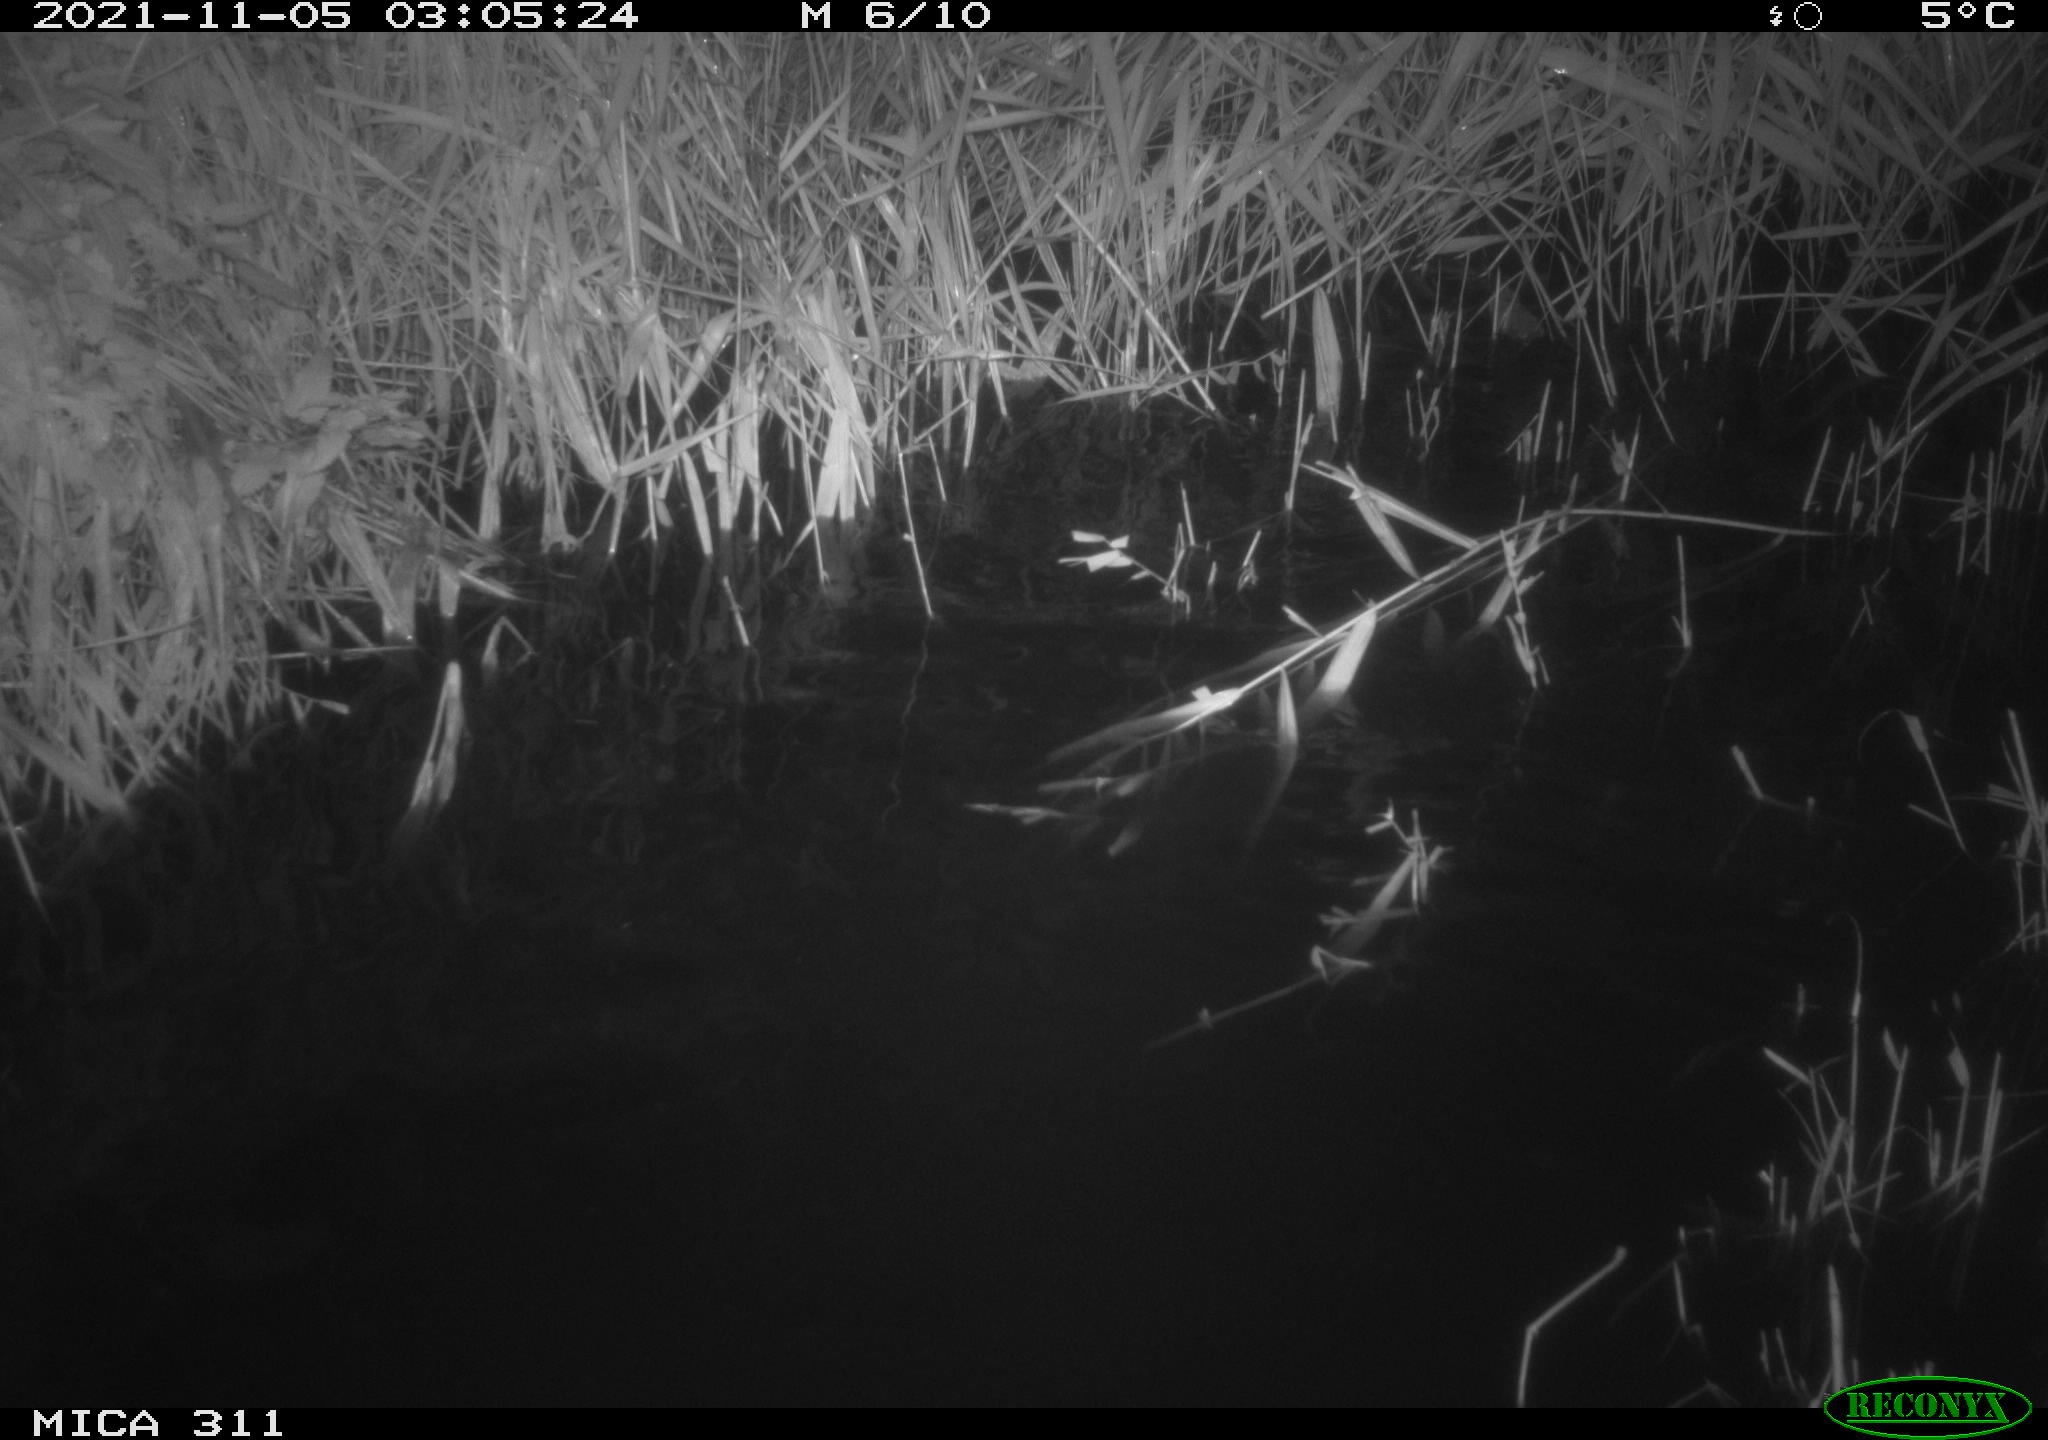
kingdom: Animalia
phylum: Chordata
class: Mammalia
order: Rodentia
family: Muridae
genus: Rattus
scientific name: Rattus norvegicus
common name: Brown rat
